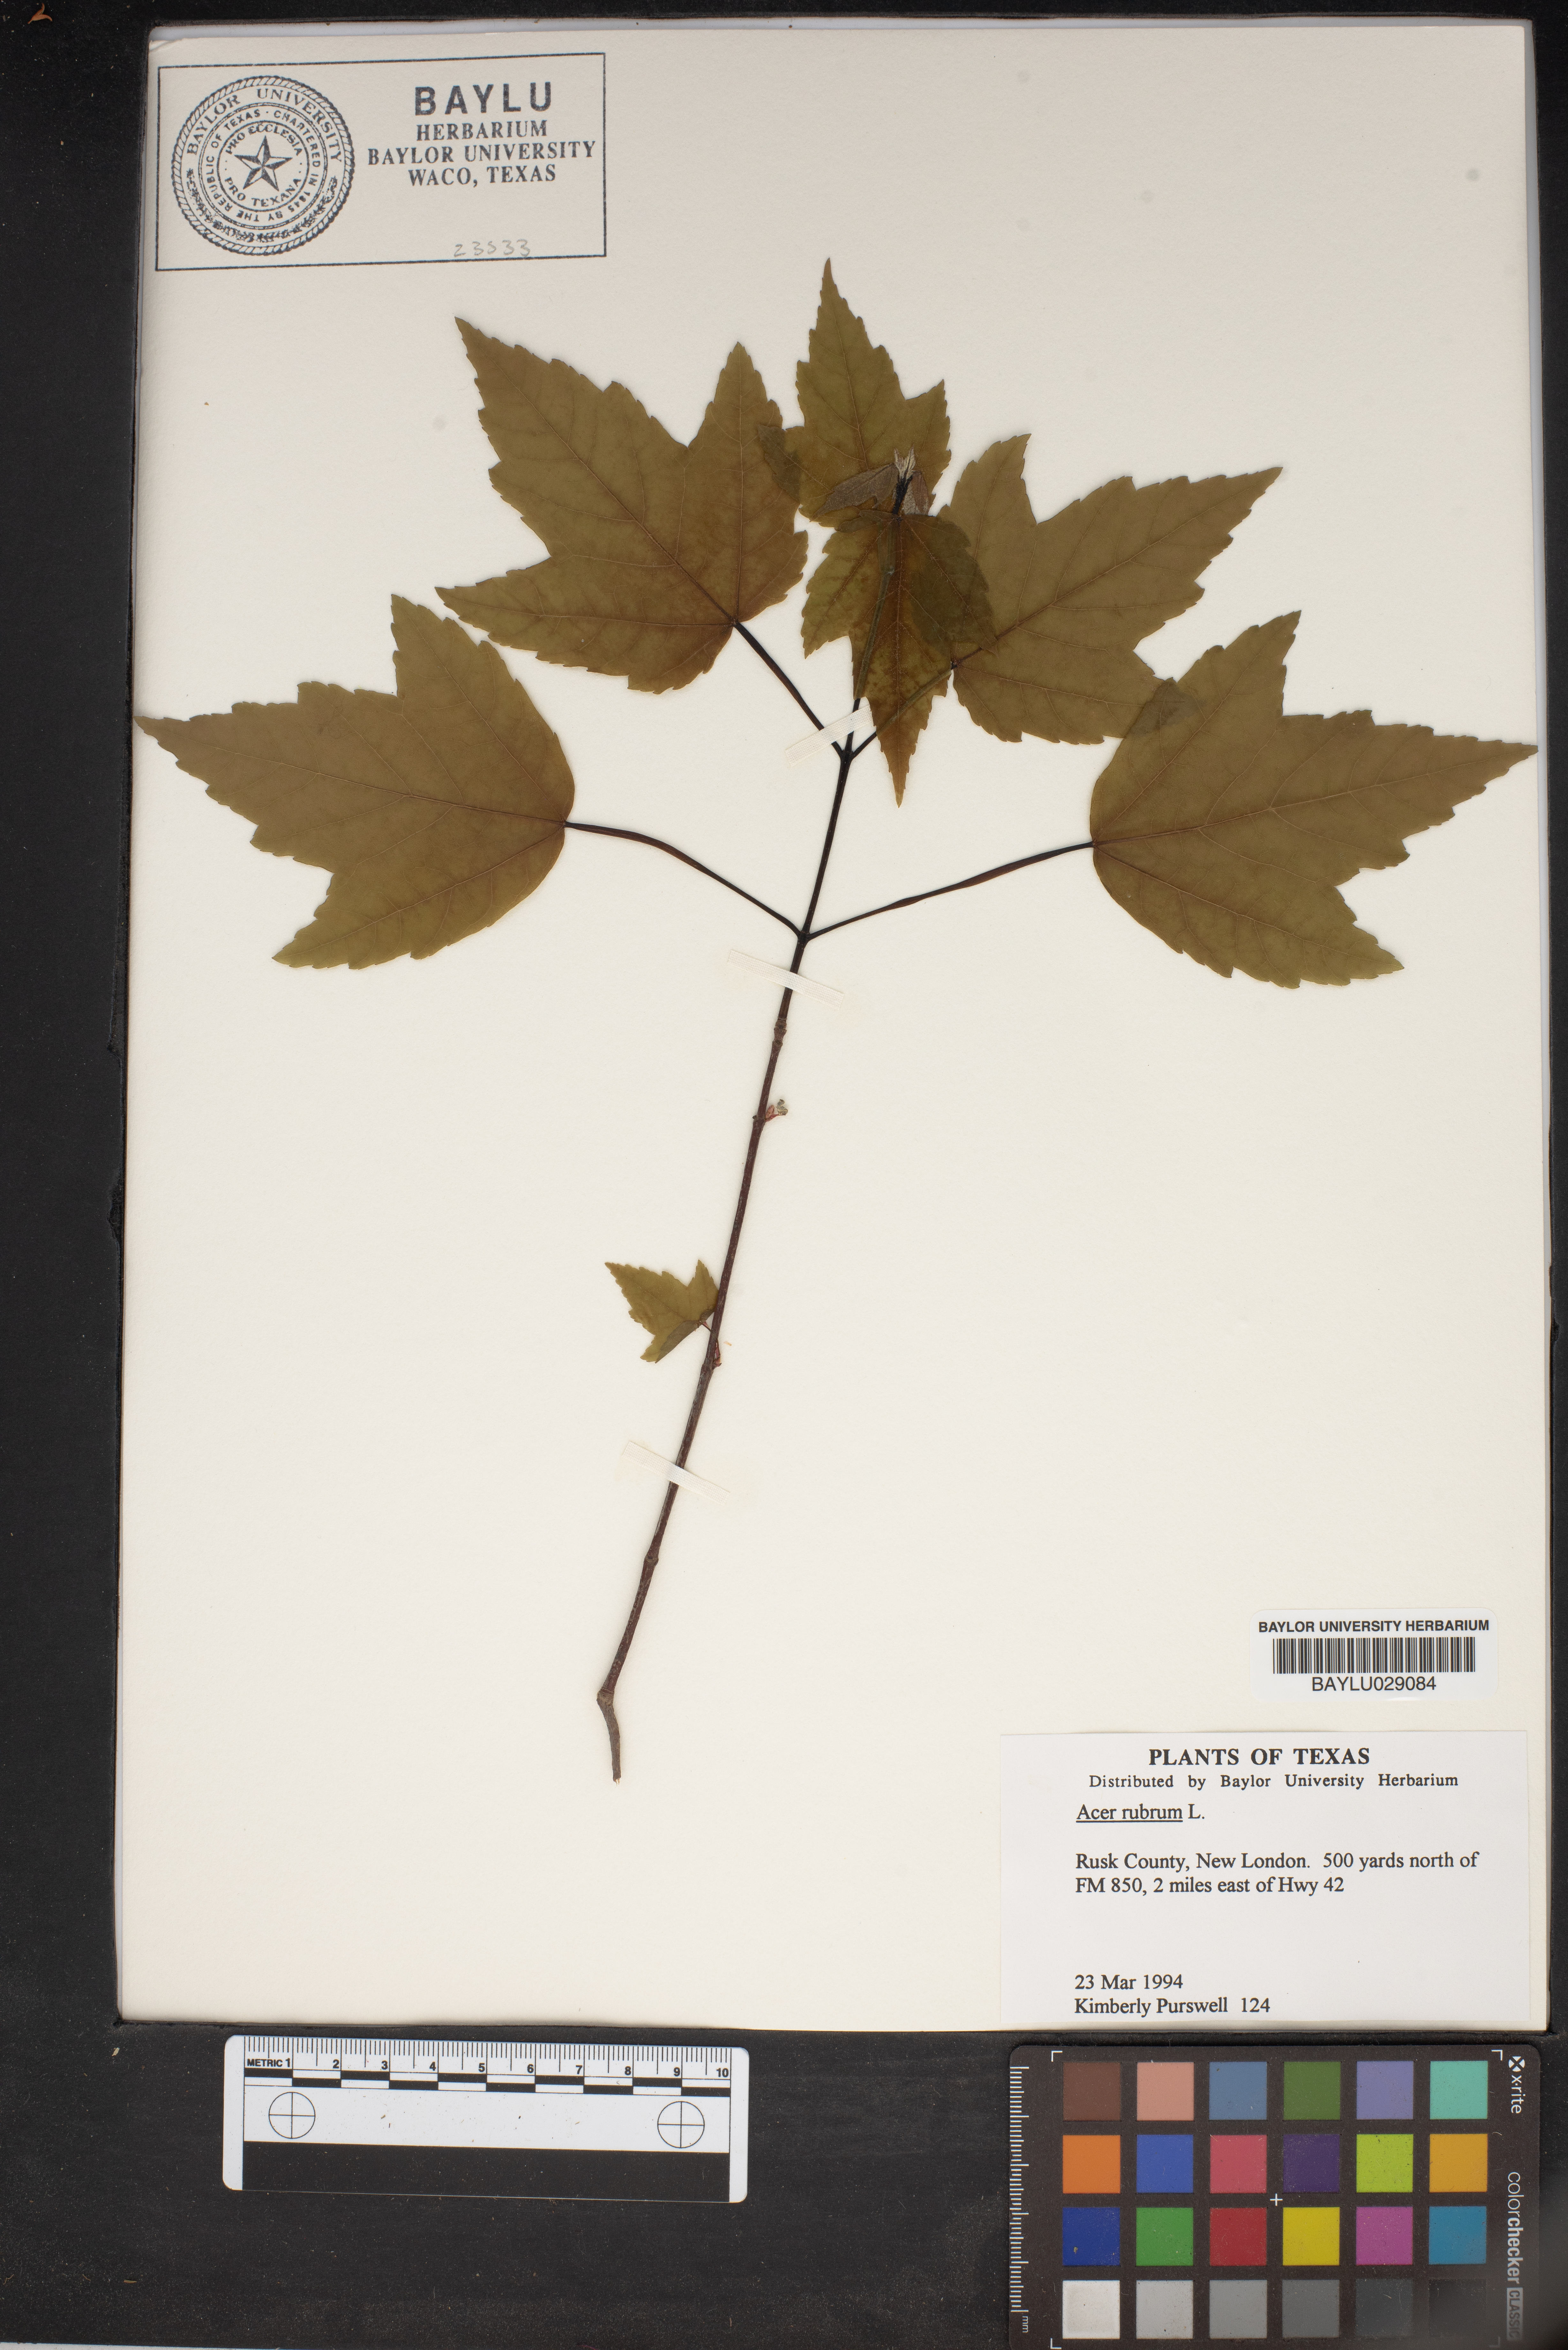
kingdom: Plantae
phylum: Tracheophyta
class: Magnoliopsida
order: Sapindales
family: Sapindaceae
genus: Acer
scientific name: Acer rubrum
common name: Red maple
